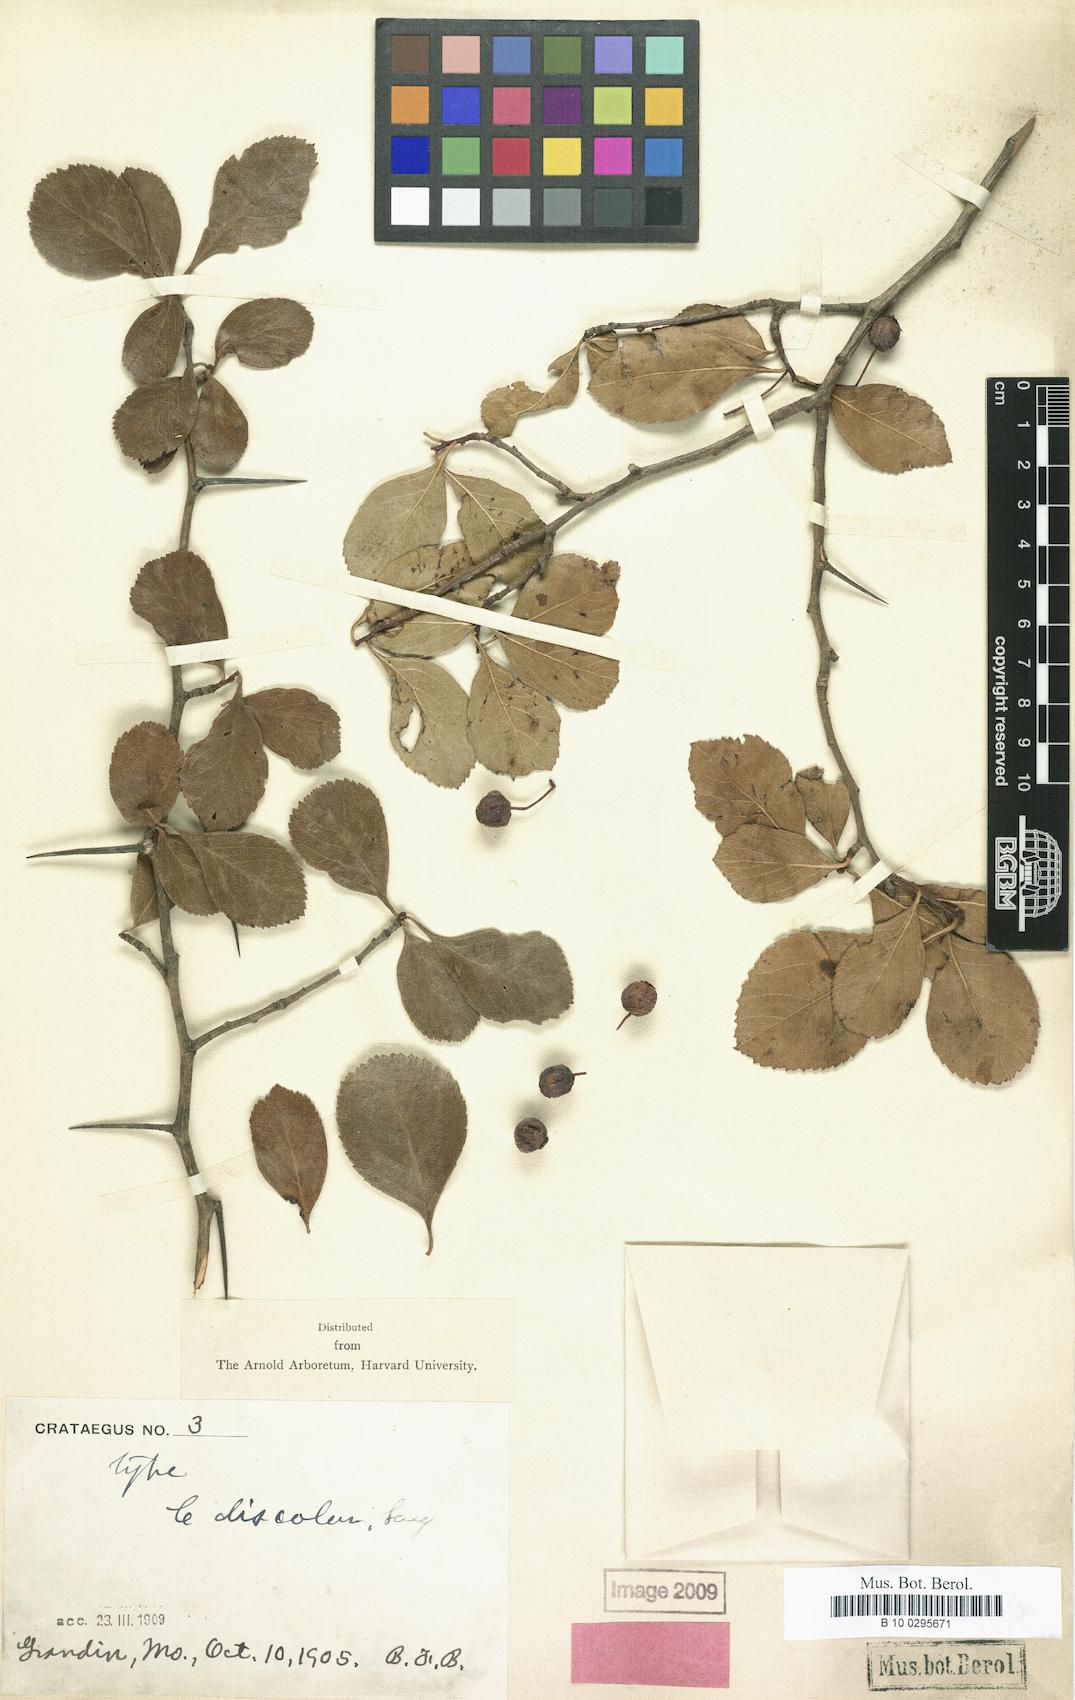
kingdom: Plantae
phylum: Tracheophyta
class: Magnoliopsida
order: Rosales
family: Rosaceae
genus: Crataegus
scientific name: Crataegus reverchonii
